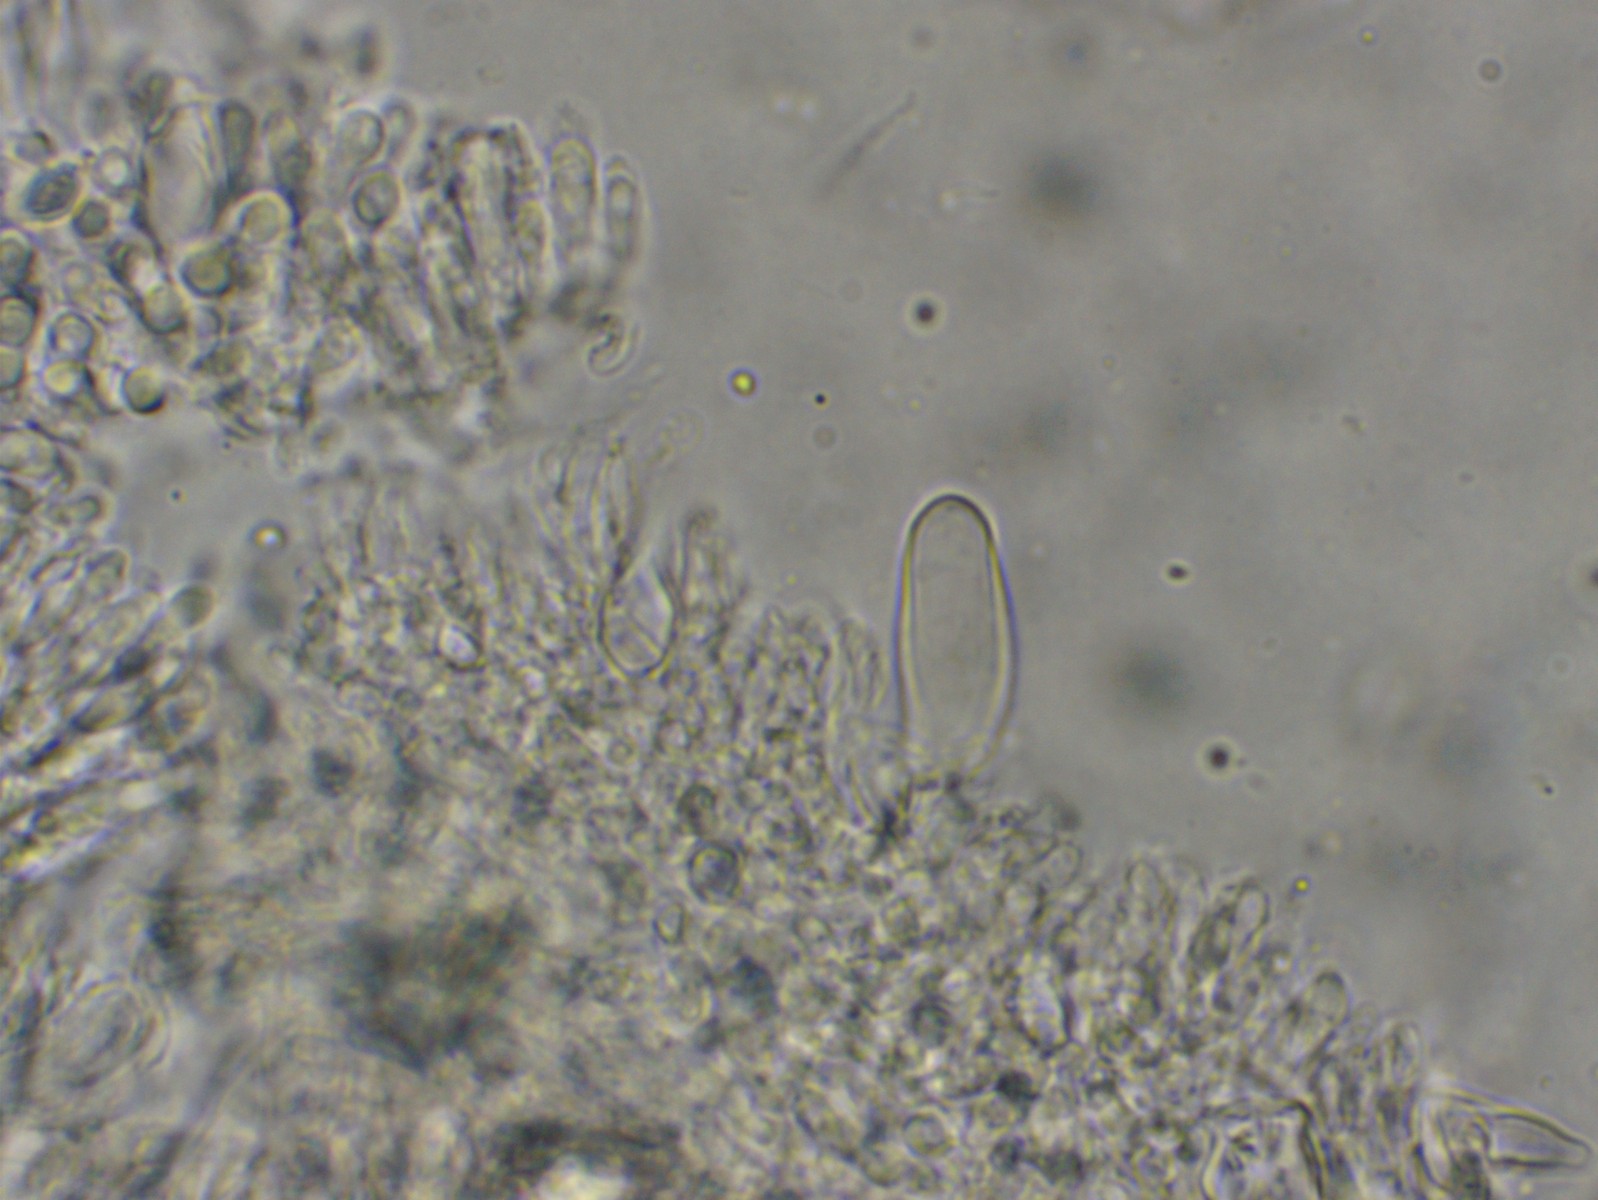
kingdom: Fungi
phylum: Basidiomycota
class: Agaricomycetes
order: Agaricales
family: Marasmiaceae
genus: Baeospora
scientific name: Baeospora myosura
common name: koglebruskhat
